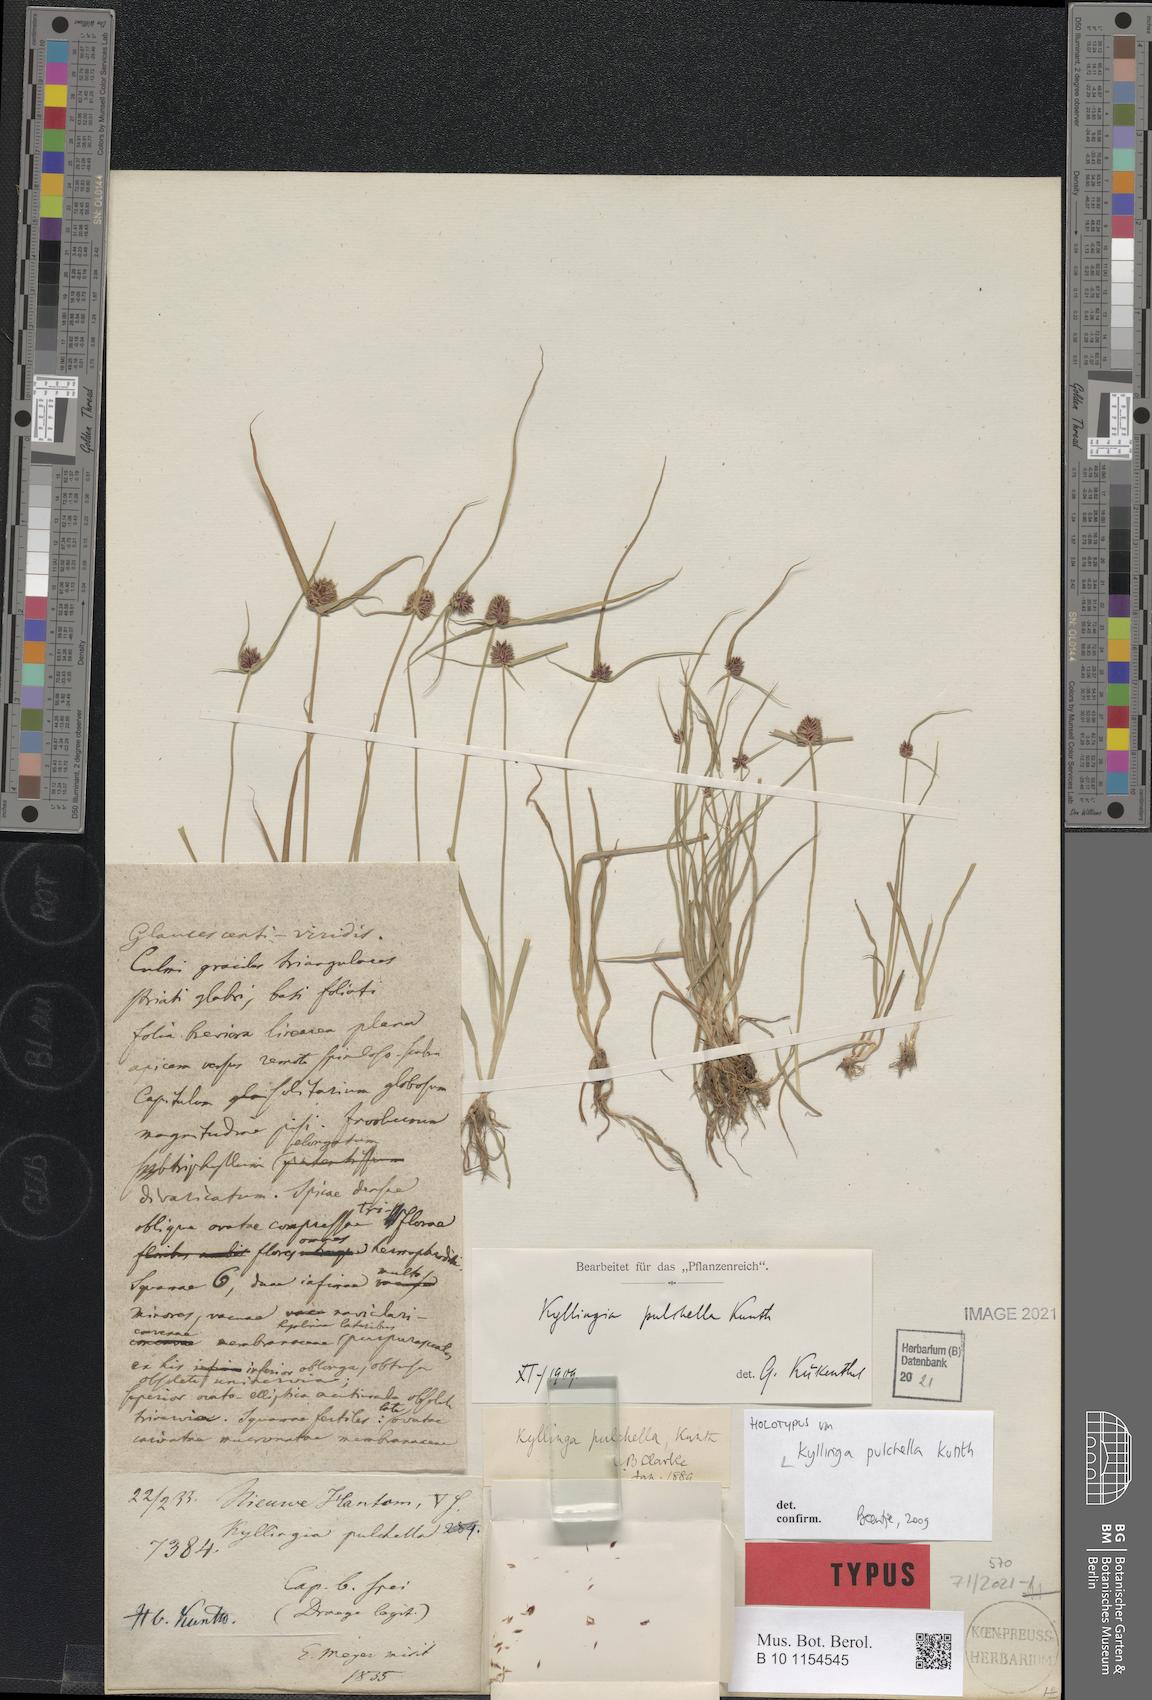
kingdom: Plantae
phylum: Tracheophyta
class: Liliopsida
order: Poales
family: Cyperaceae
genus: Cyperus
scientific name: Cyperus bracheilema
